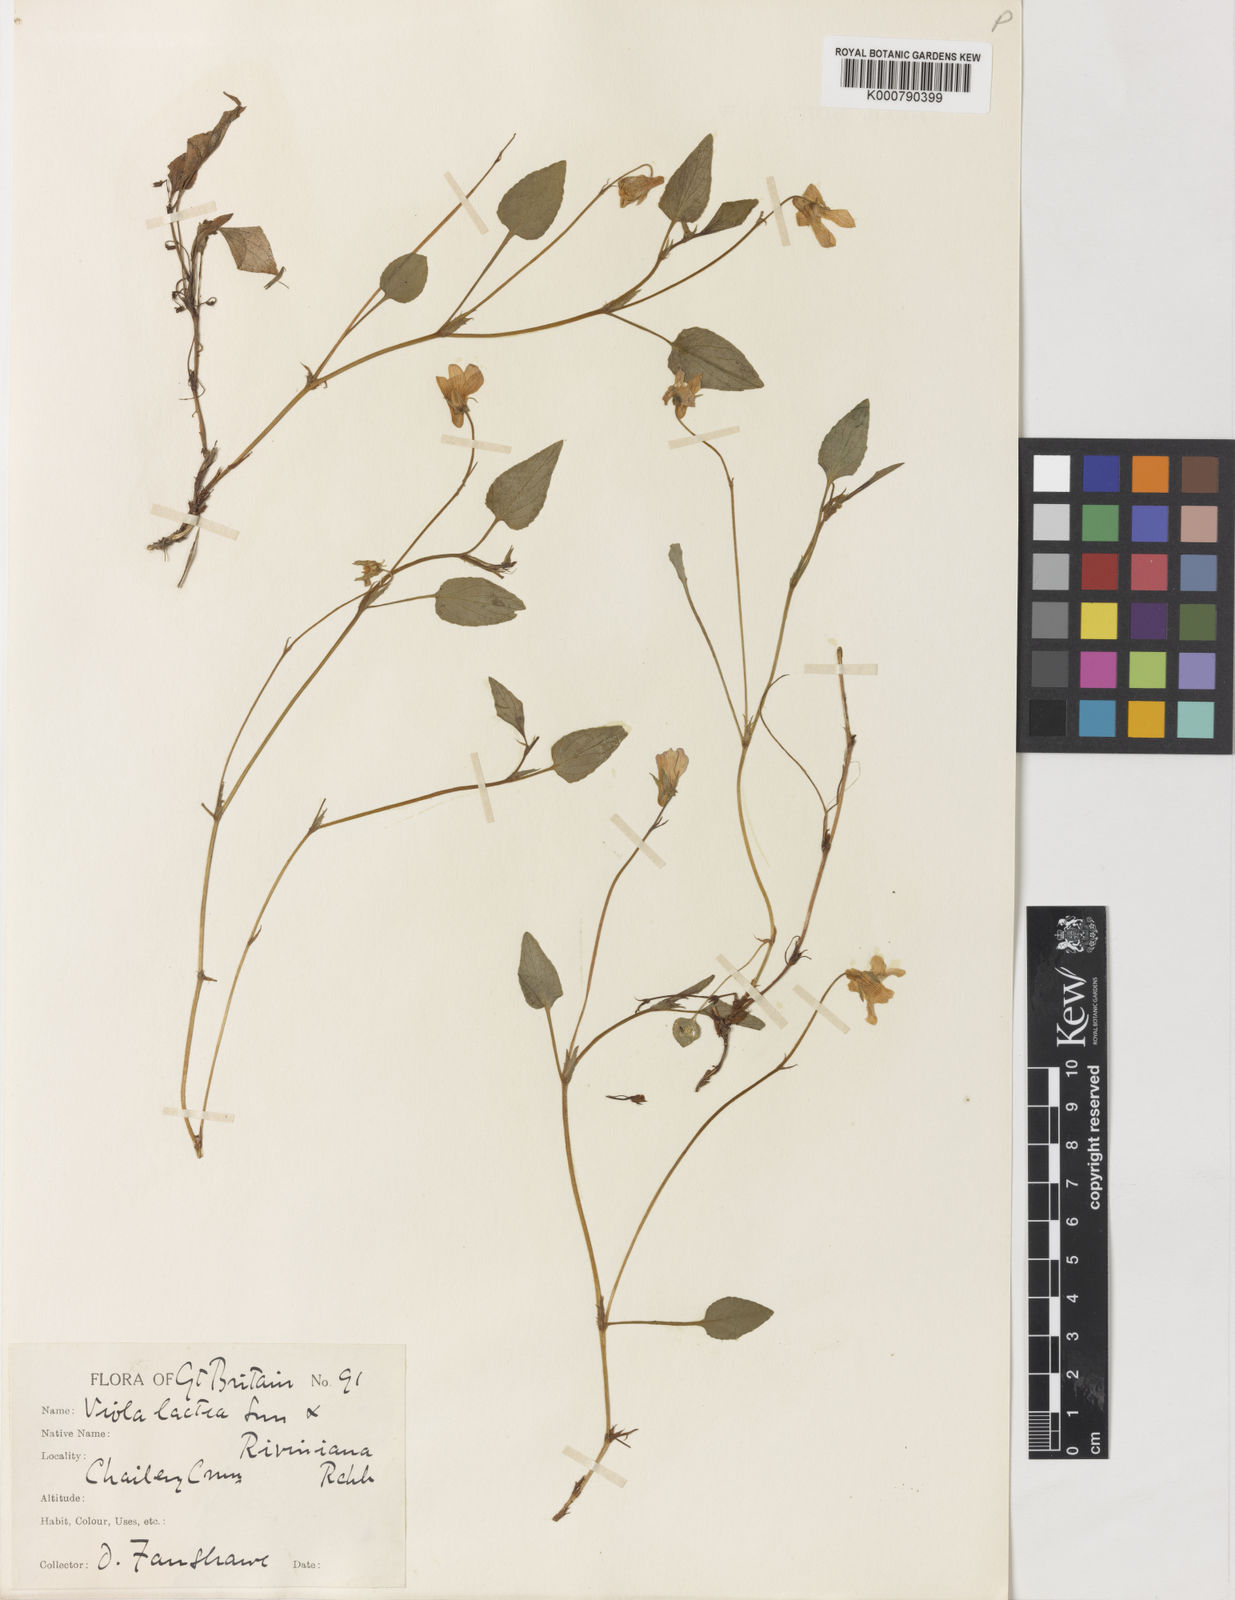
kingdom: Plantae
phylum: Tracheophyta
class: Magnoliopsida
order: Malpighiales
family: Violaceae
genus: Viola
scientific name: Viola lactea
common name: Pale dog-violet
